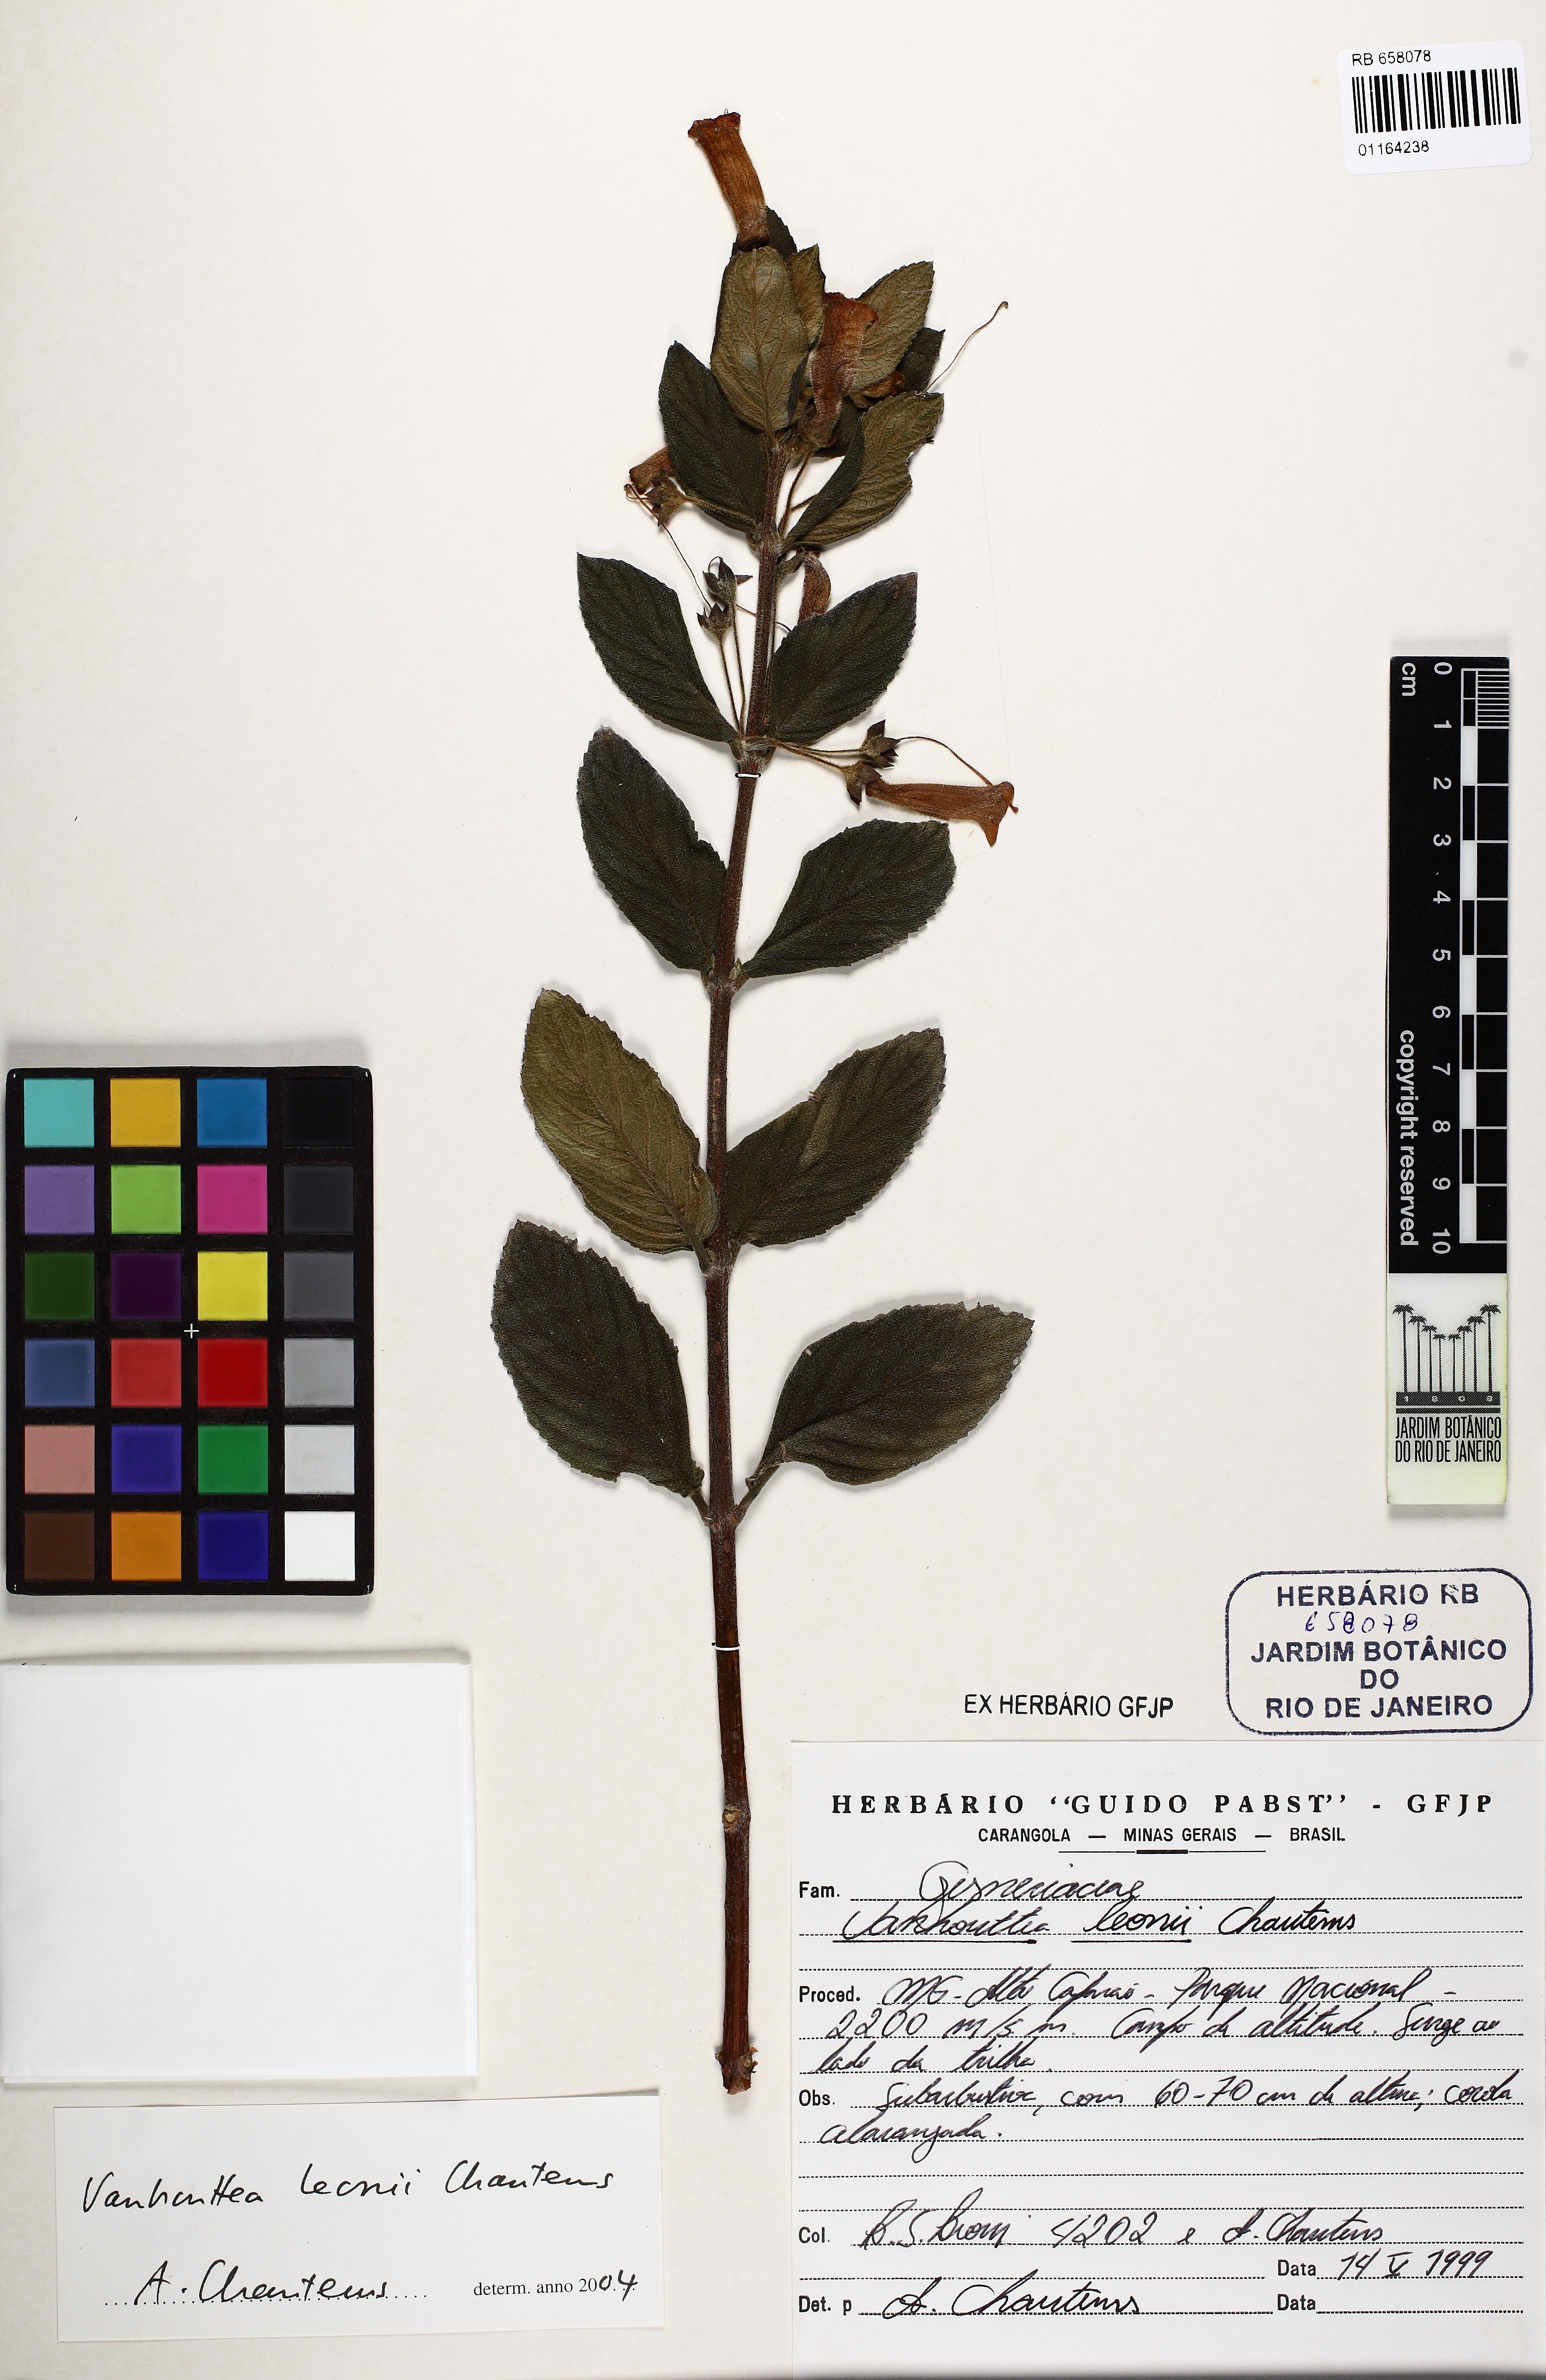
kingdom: Plantae
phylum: Tracheophyta
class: Magnoliopsida
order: Lamiales
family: Gesneriaceae
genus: Vanhouttea
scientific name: Vanhouttea leonii
